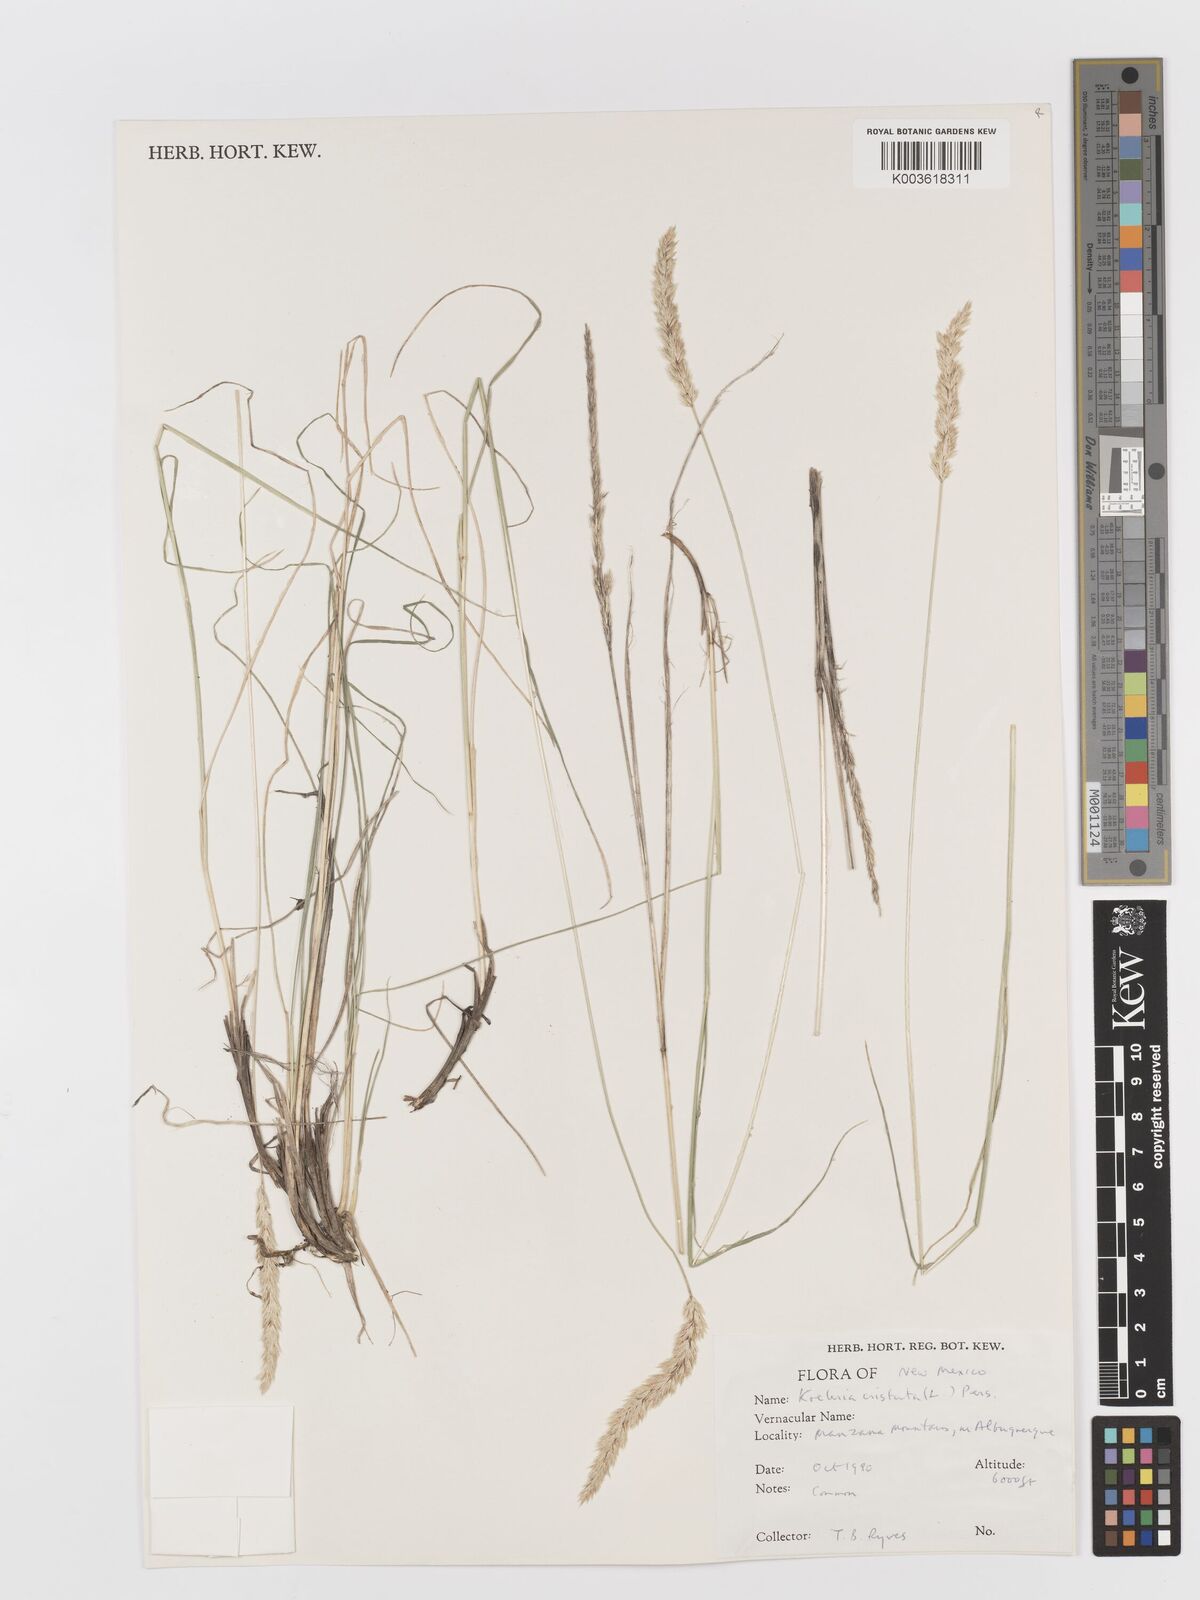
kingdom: Plantae
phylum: Tracheophyta
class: Liliopsida
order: Poales
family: Poaceae
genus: Koeleria
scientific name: Koeleria macrantha
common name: Crested hair-grass
